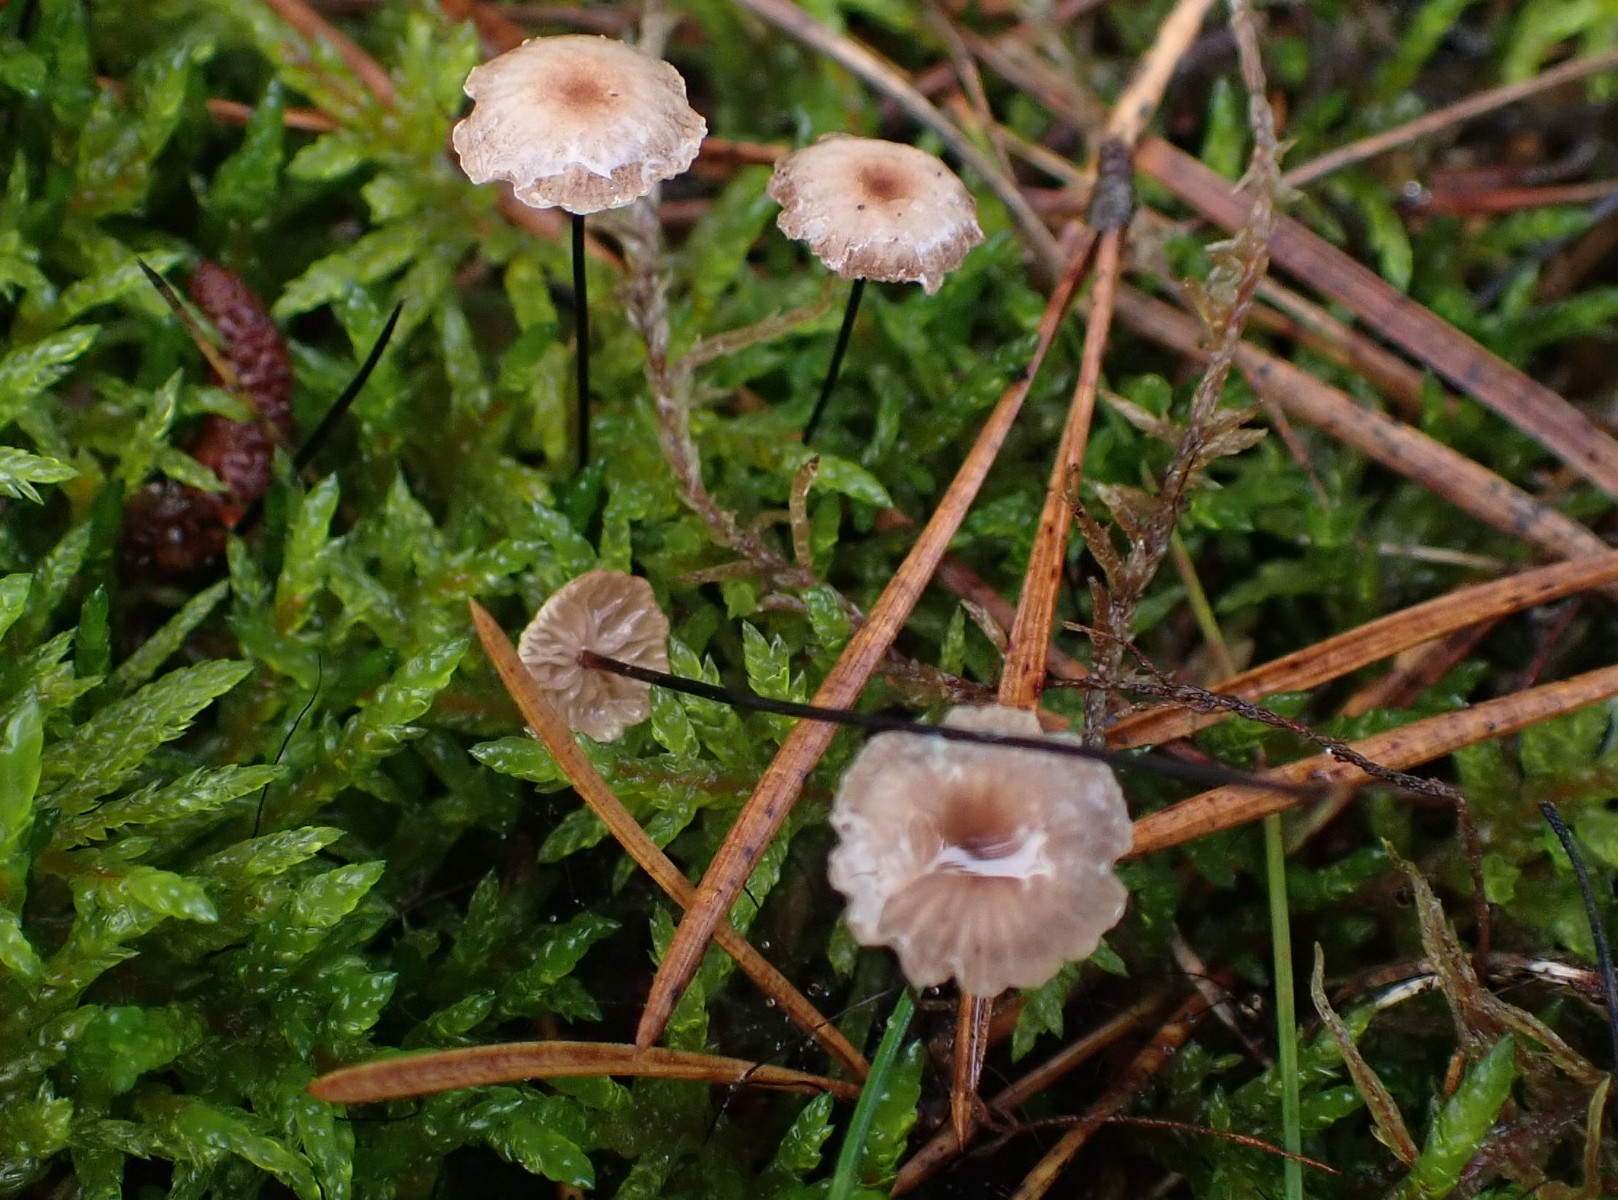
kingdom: Fungi
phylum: Basidiomycota
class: Agaricomycetes
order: Agaricales
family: Omphalotaceae
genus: Gymnopus
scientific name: Gymnopus androsaceus
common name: trådstokket fladhat
